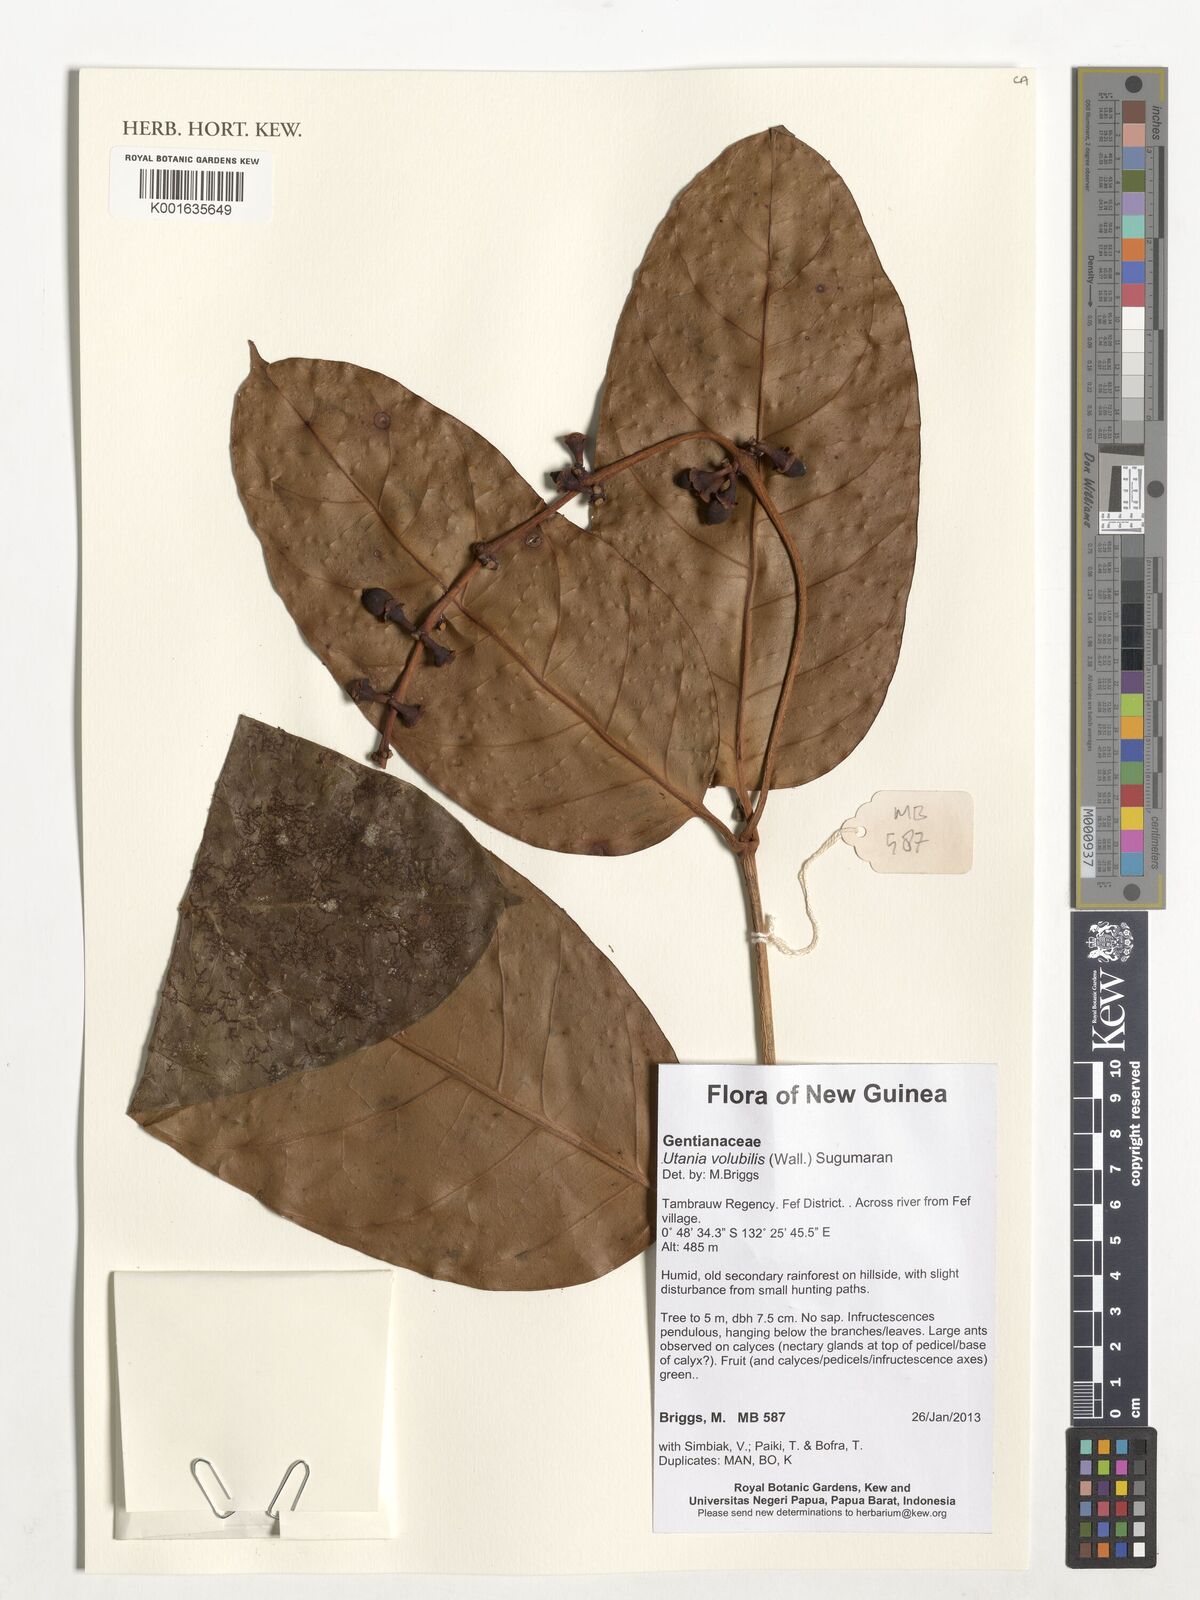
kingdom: Plantae
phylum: Tracheophyta
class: Magnoliopsida
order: Gentianales
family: Gentianaceae
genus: Utania
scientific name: Utania volubilis
